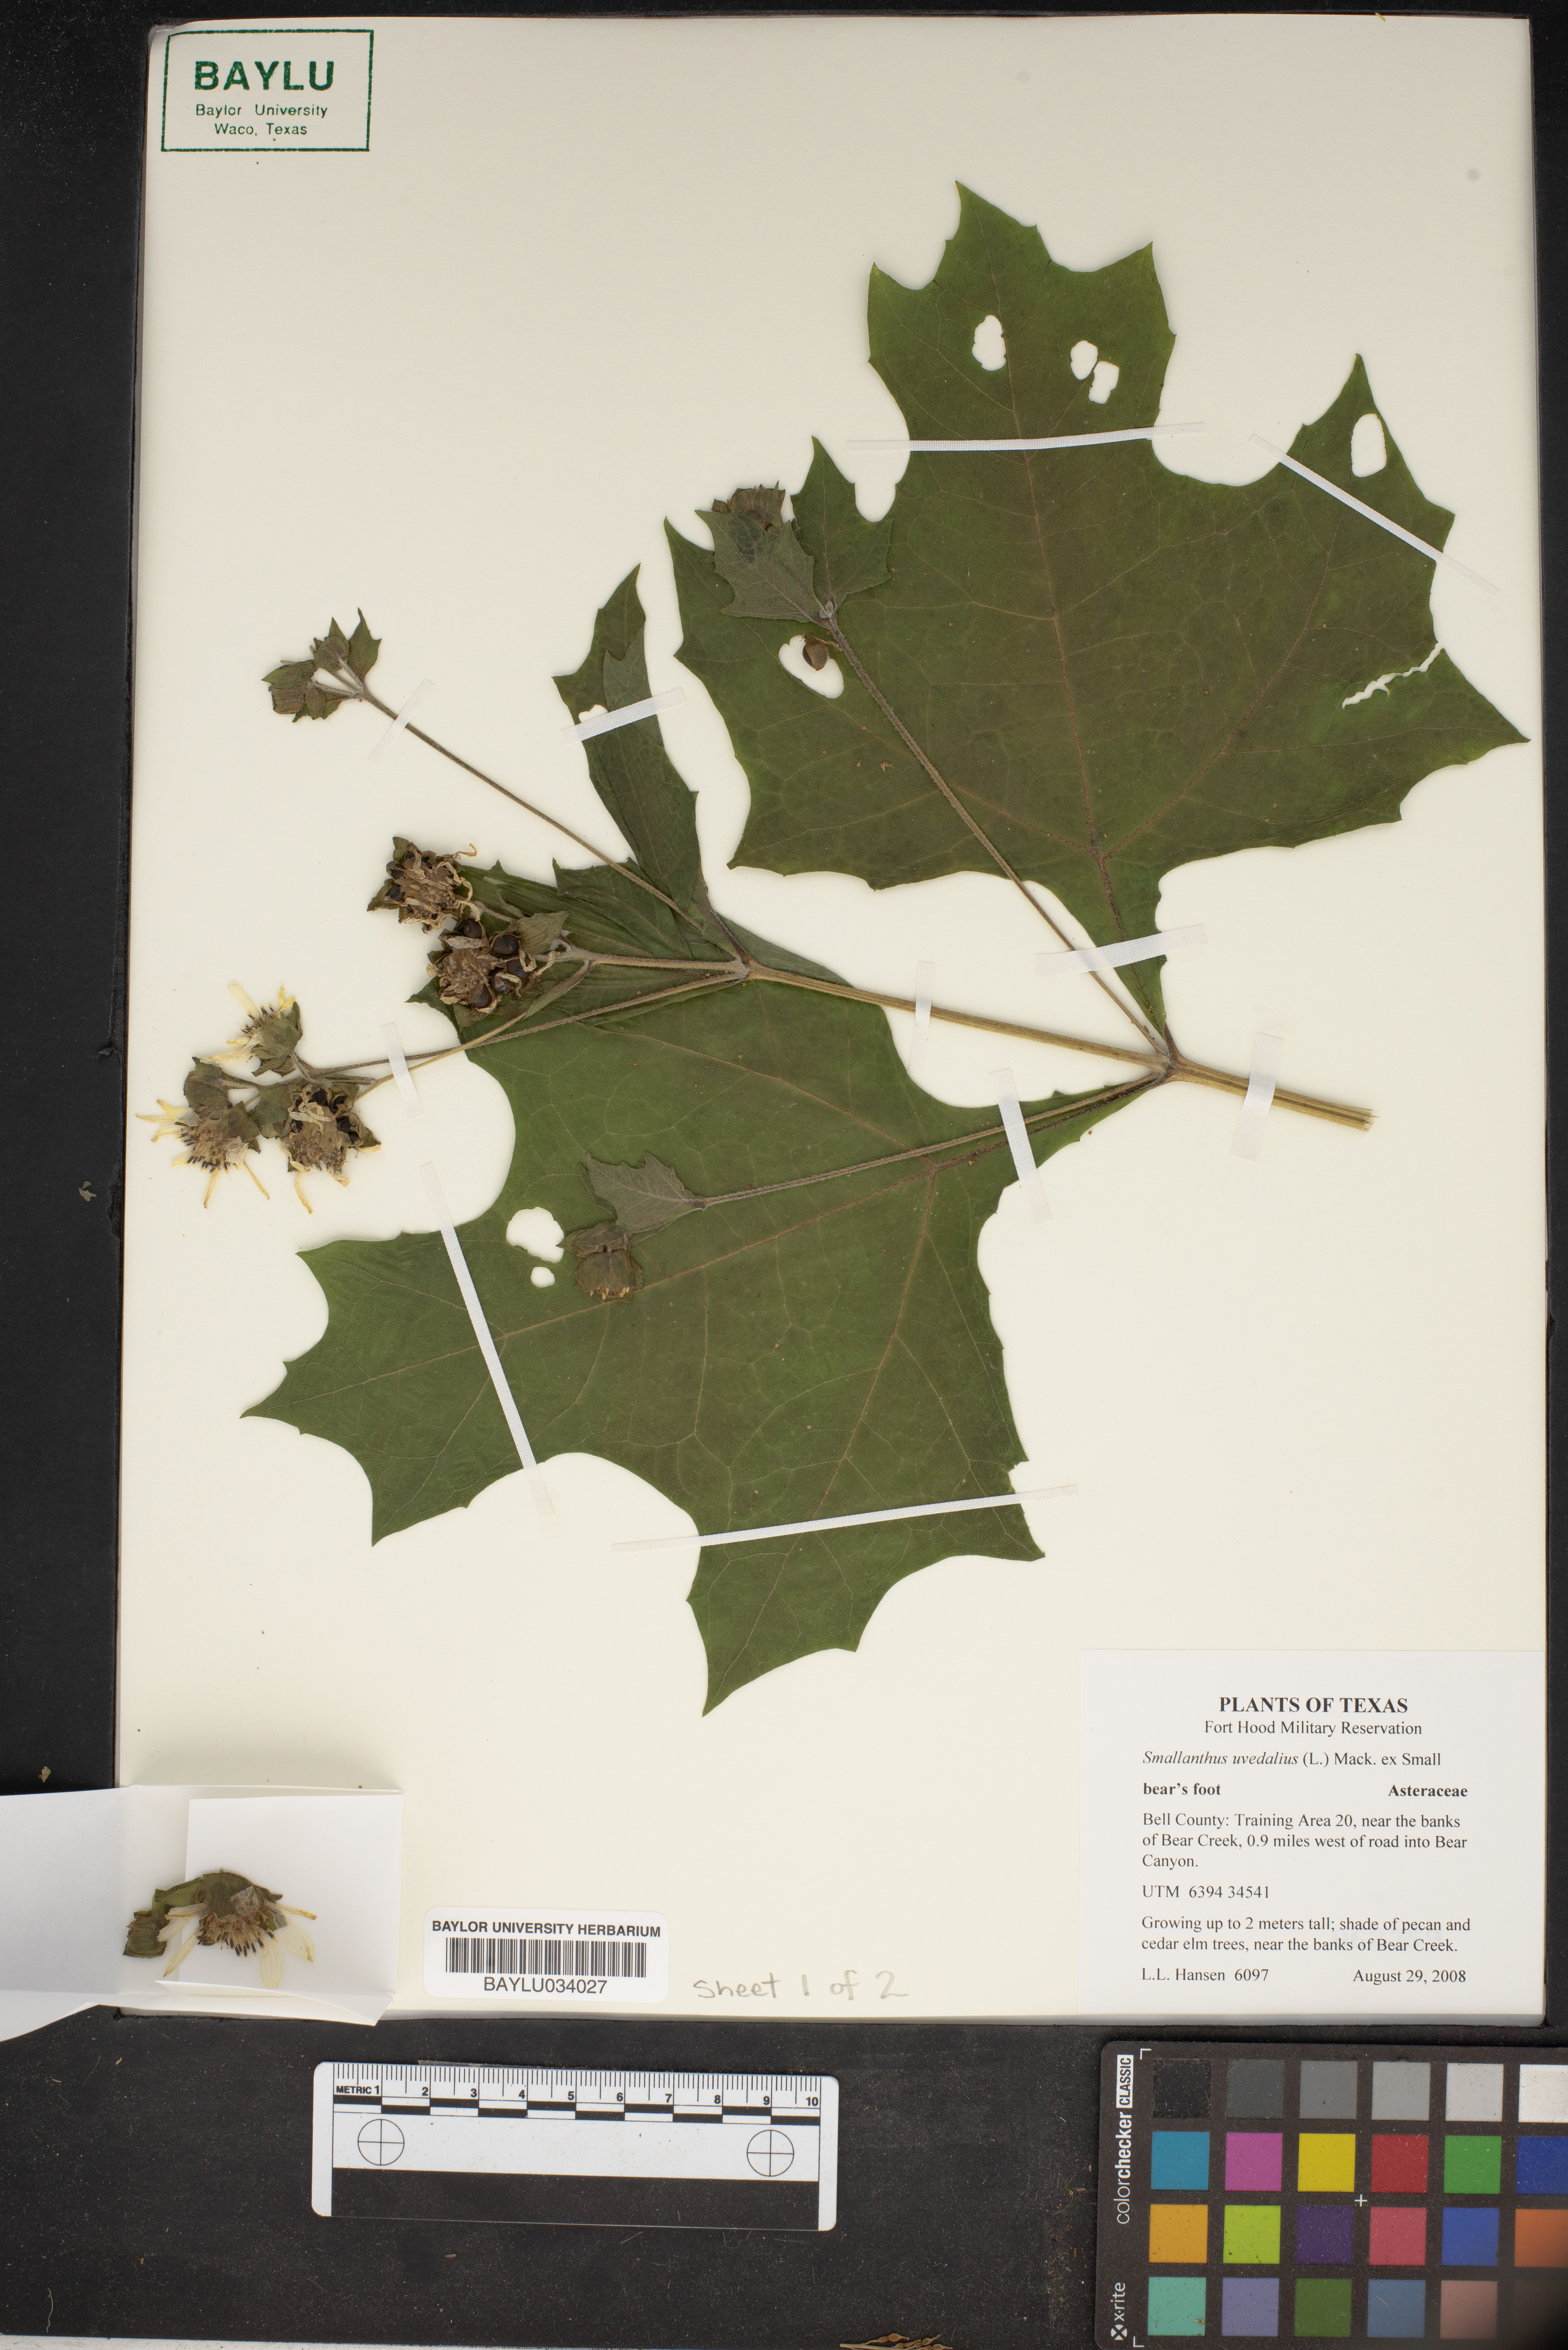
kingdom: Plantae
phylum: Tracheophyta
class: Magnoliopsida
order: Asterales
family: Asteraceae
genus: Smallanthus
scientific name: Smallanthus uvedalia
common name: Bear's-foot
